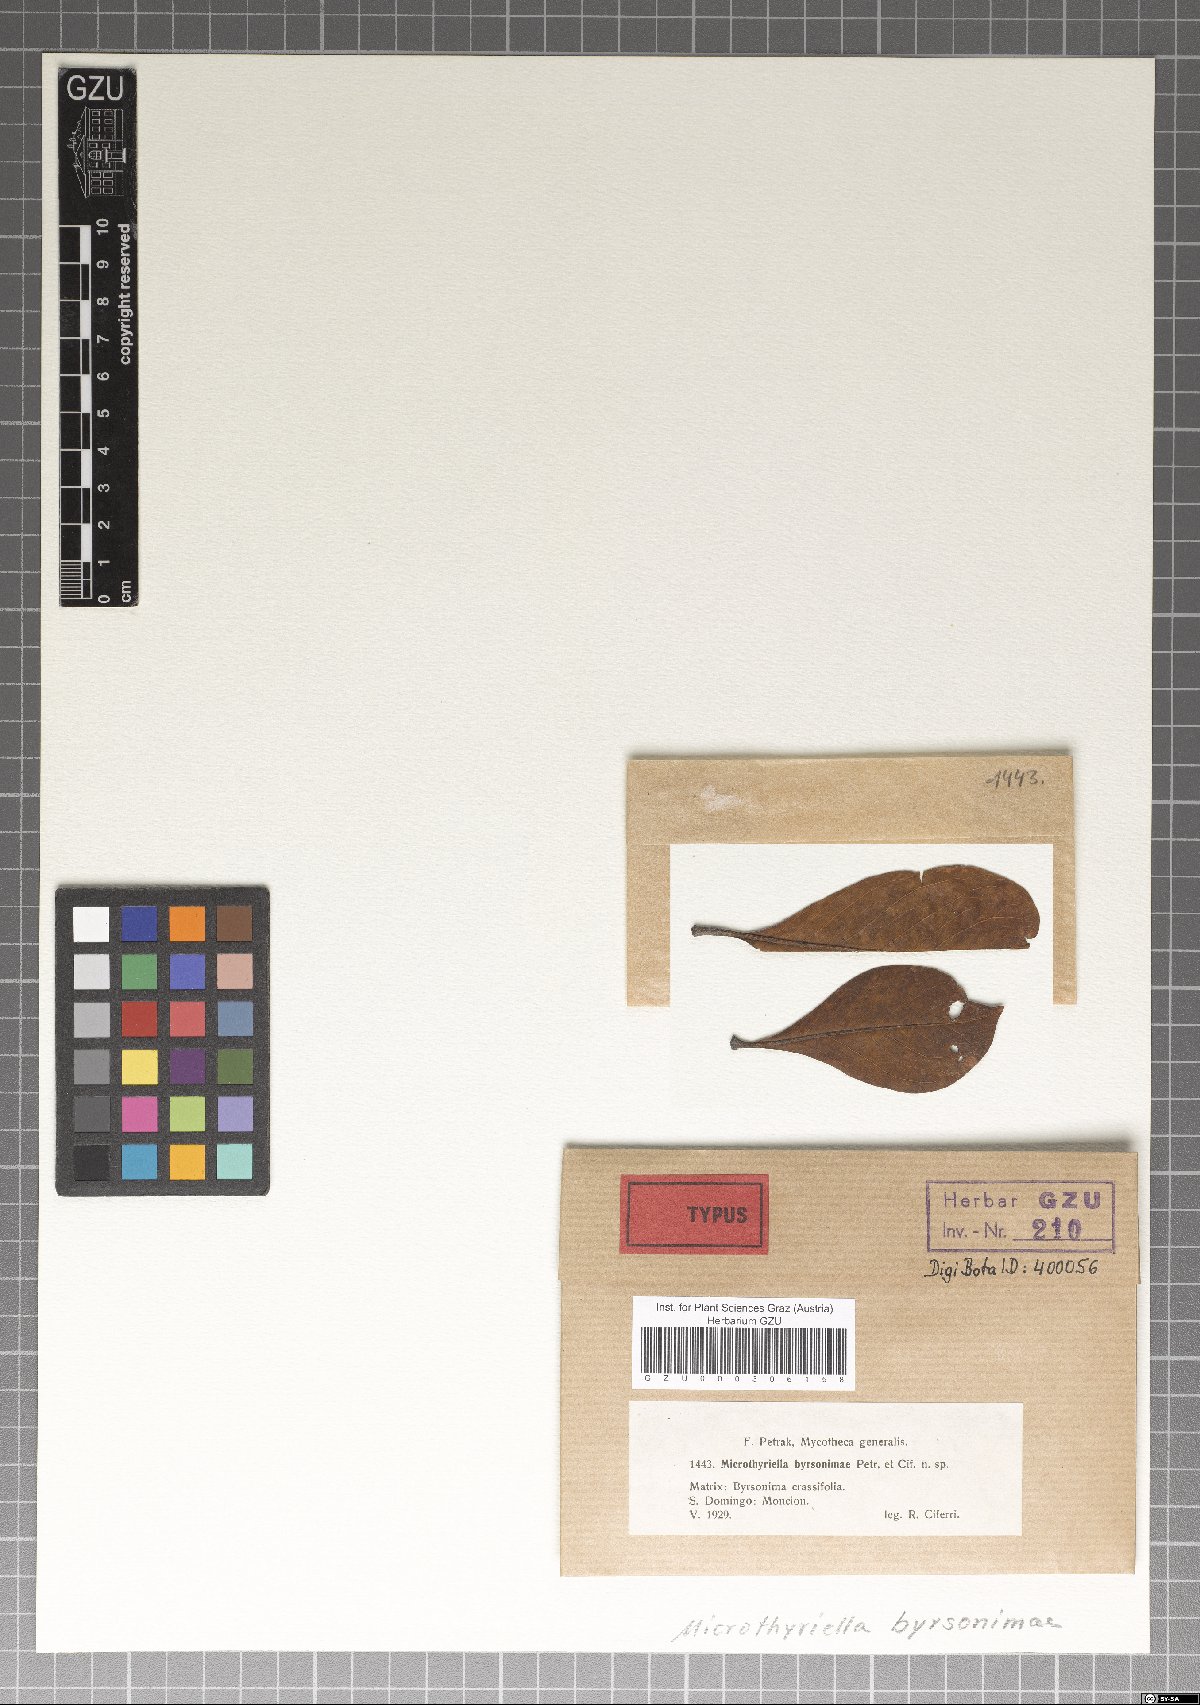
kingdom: Fungi
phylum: Ascomycota
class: Dothideomycetes
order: Mycosphaerellales
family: Schizothyriaceae
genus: Microthyriella
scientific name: Microthyriella byrsonimae
